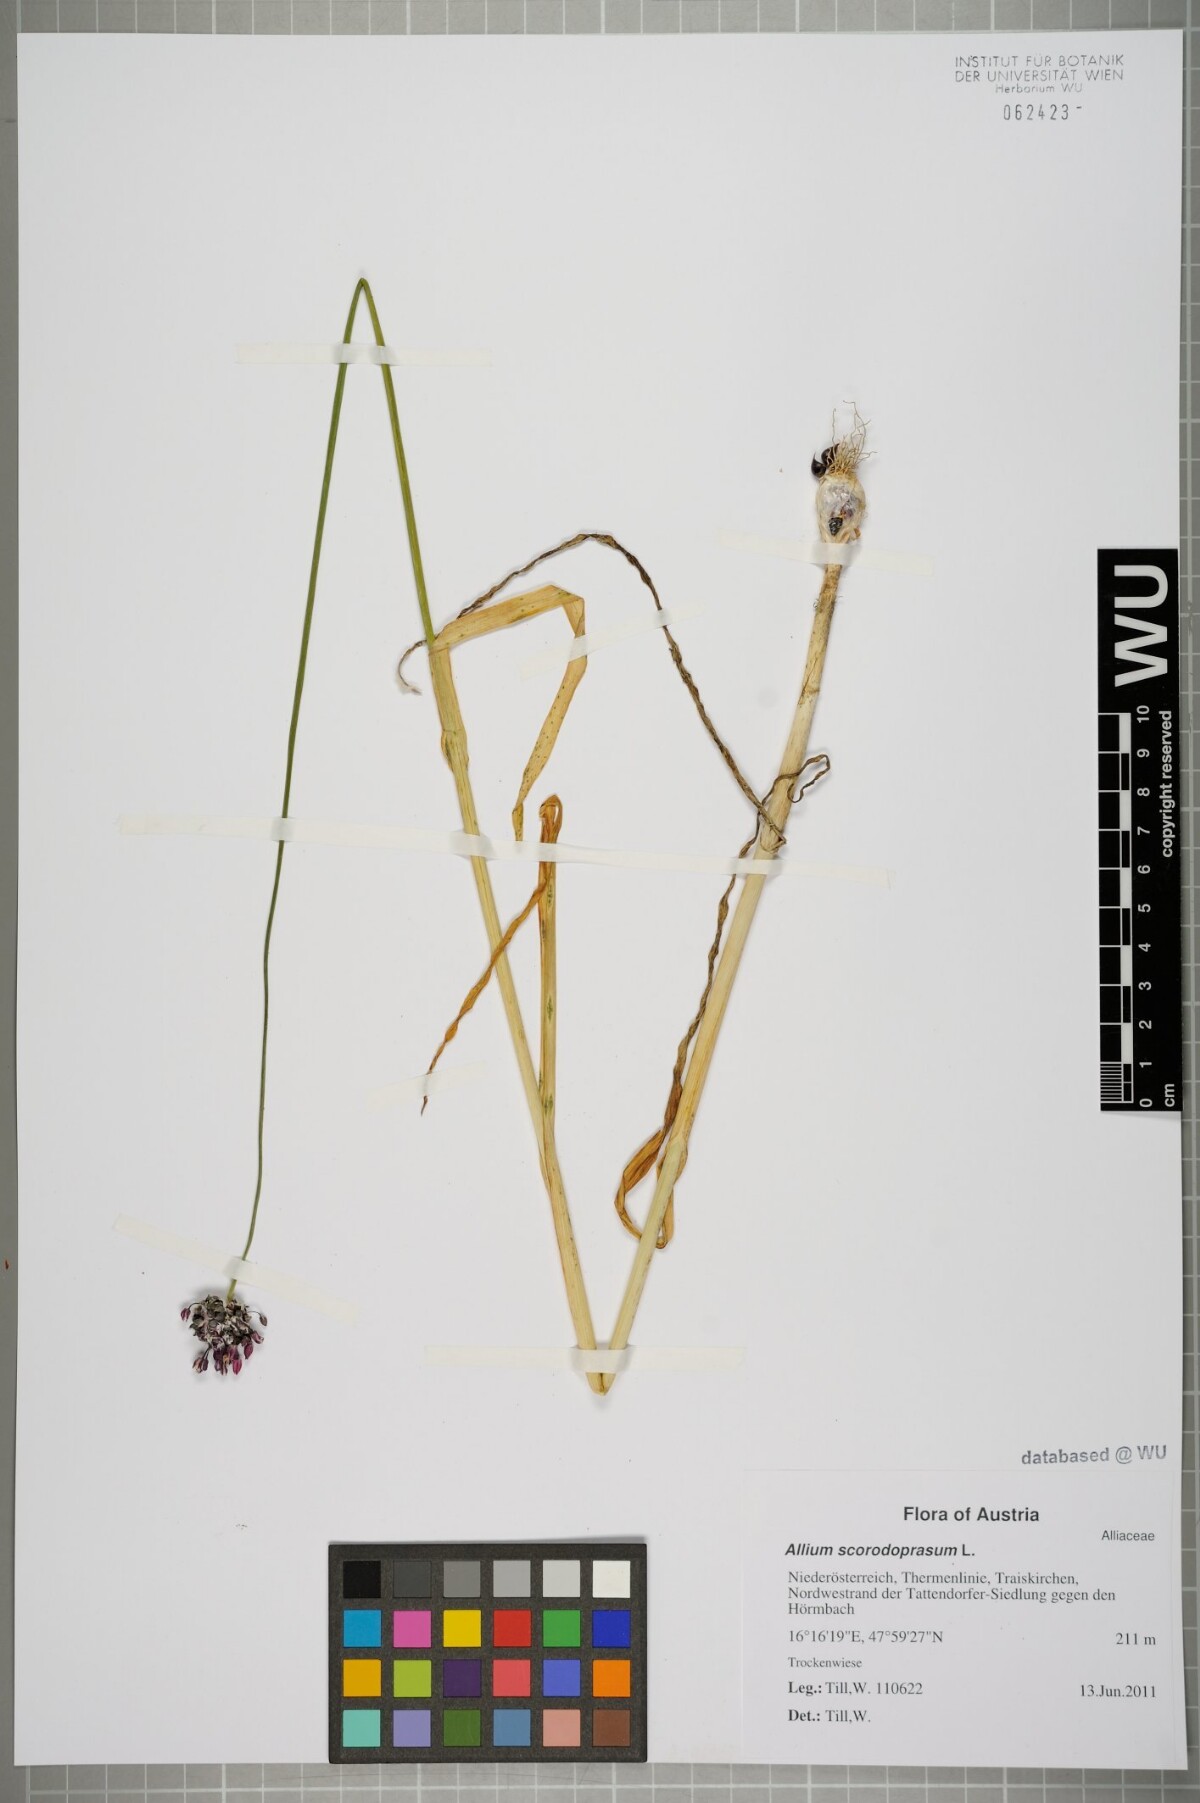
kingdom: Plantae
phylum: Tracheophyta
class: Liliopsida
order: Asparagales
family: Amaryllidaceae
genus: Allium
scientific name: Allium scorodoprasum
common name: Sand leek
